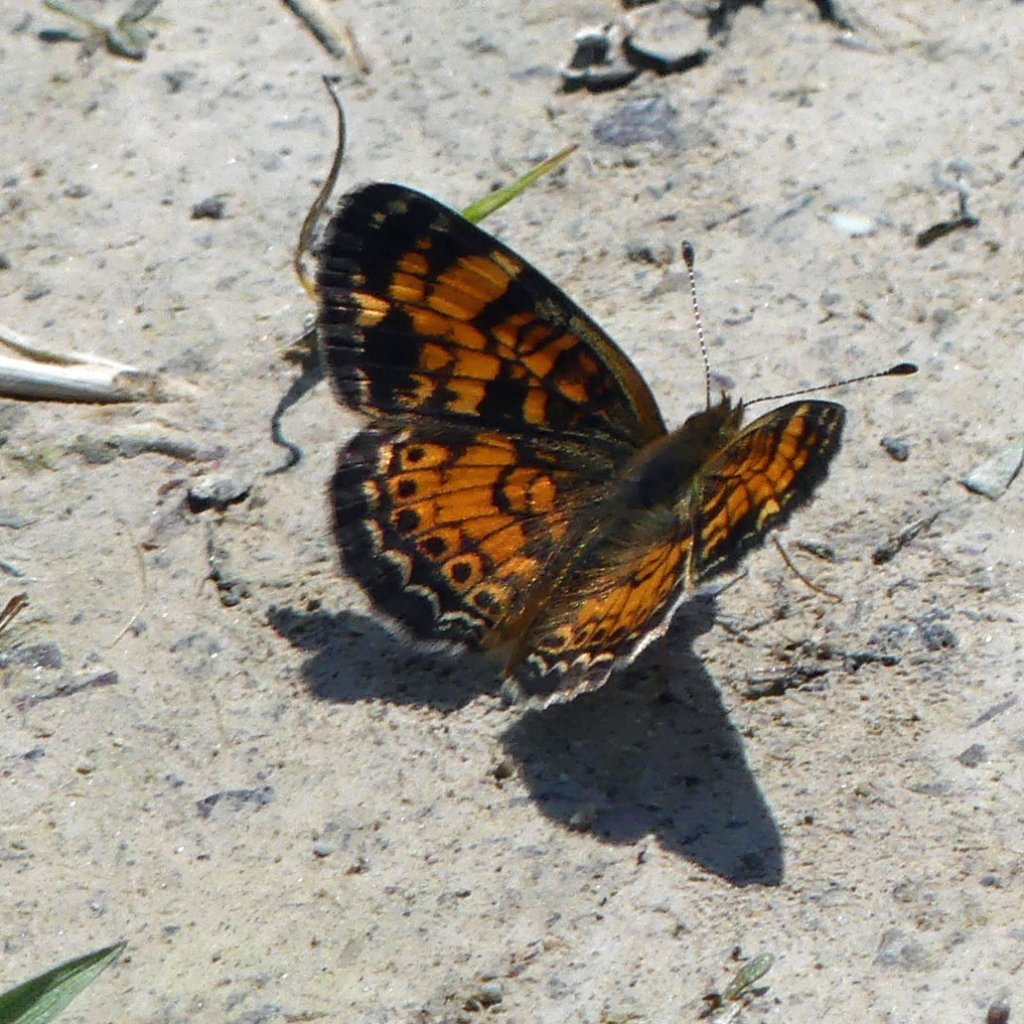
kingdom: Animalia
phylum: Arthropoda
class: Insecta
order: Lepidoptera
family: Nymphalidae
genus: Phyciodes
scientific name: Phyciodes tharos
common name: Pearl Crescent
